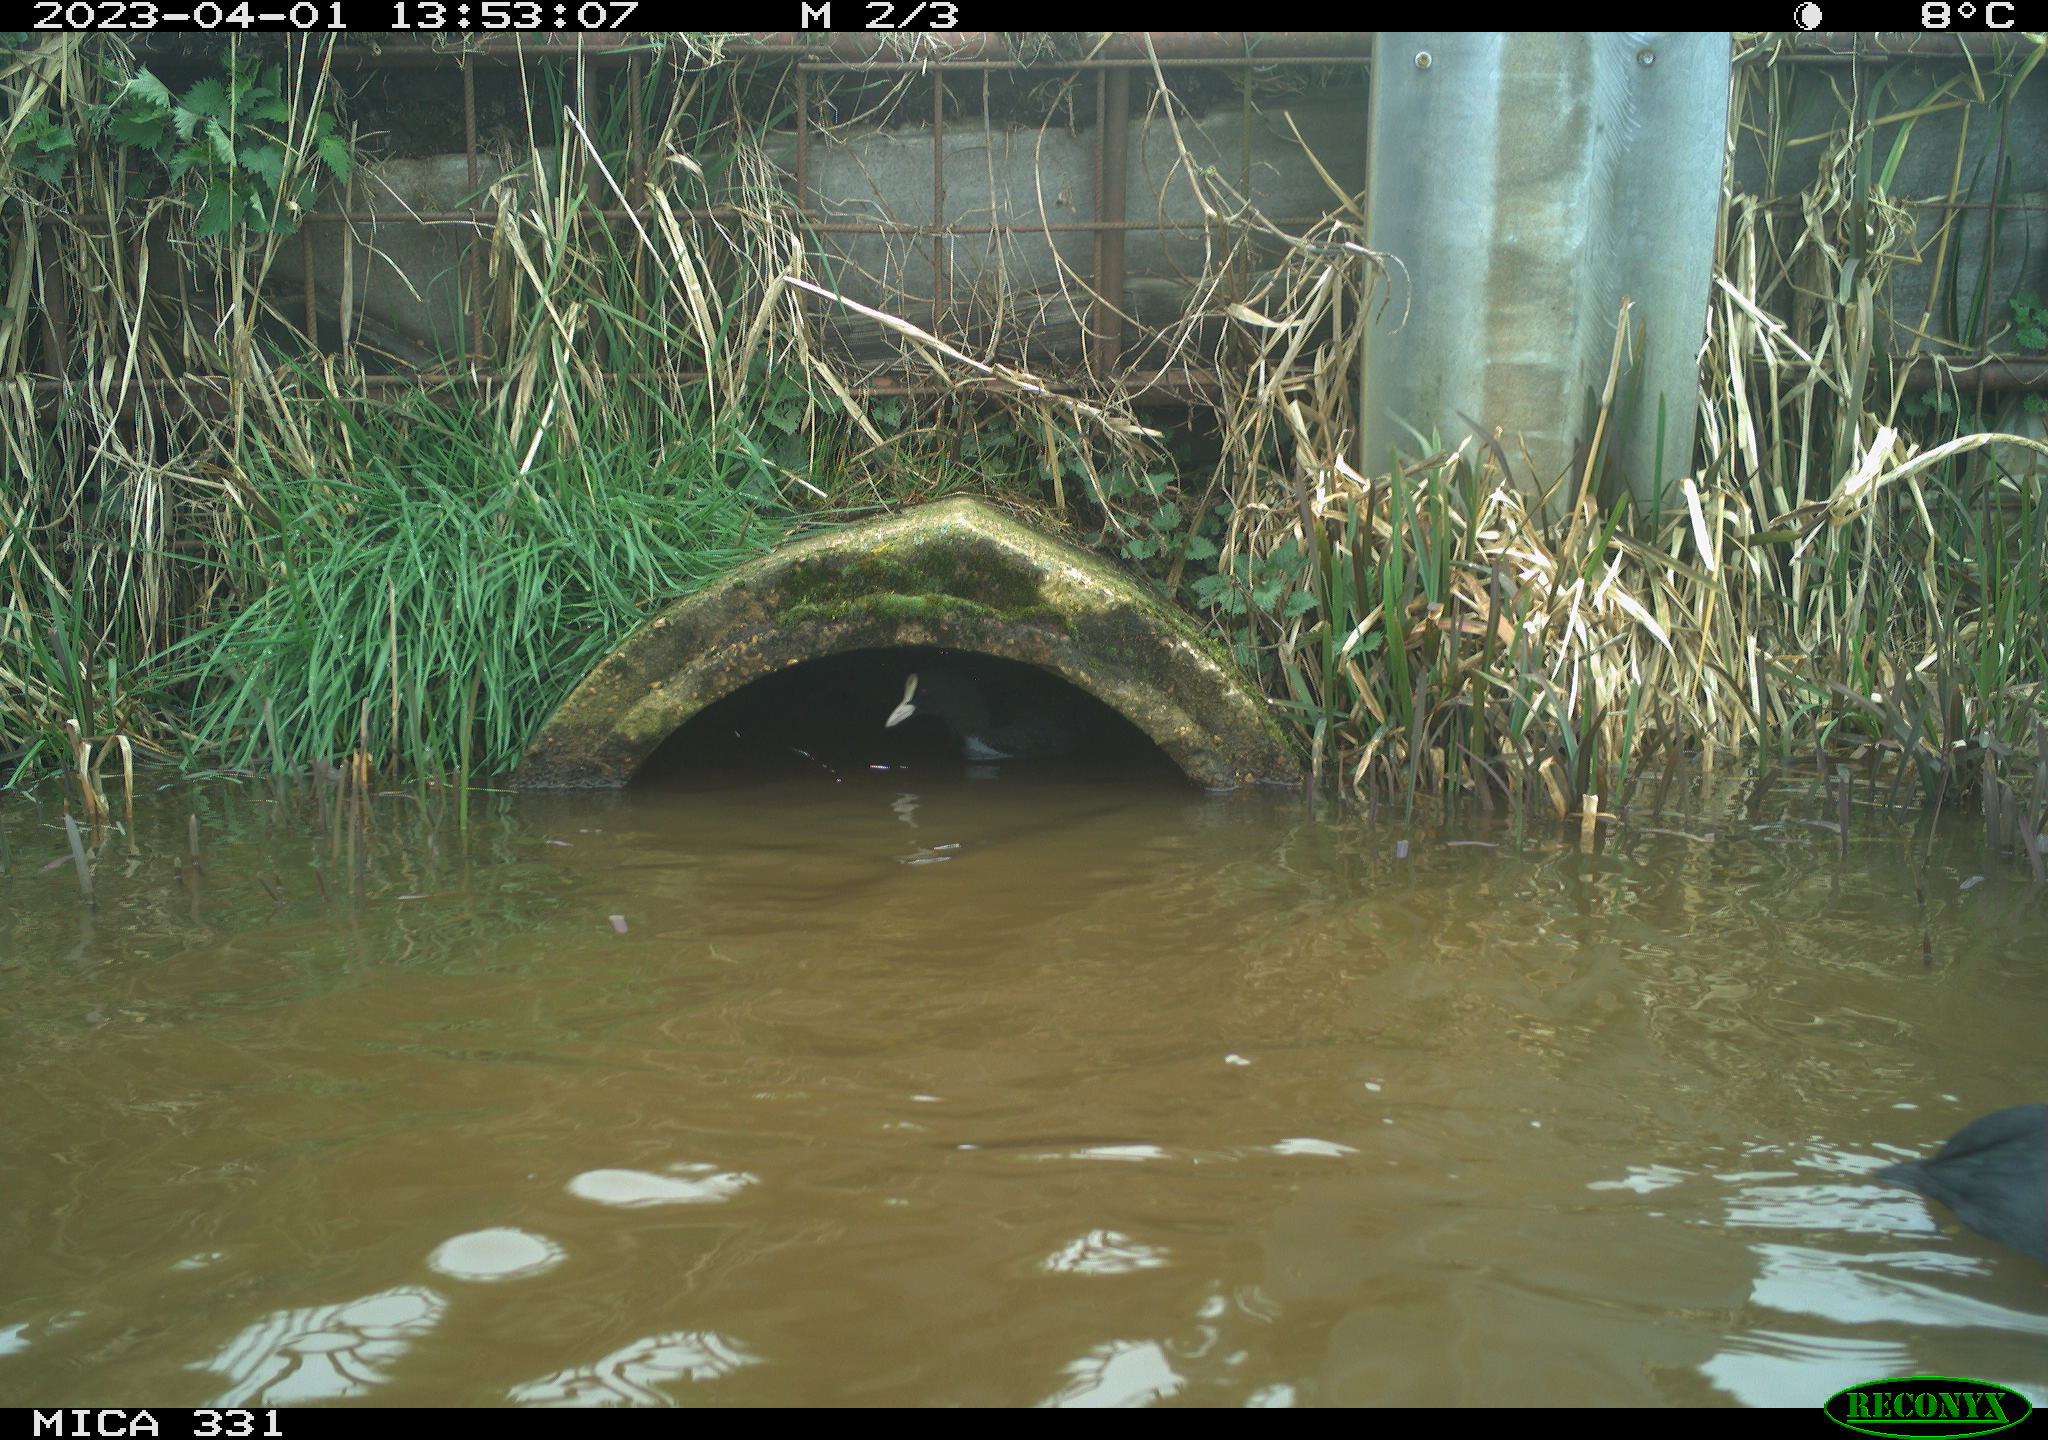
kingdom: Animalia
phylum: Chordata
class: Aves
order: Gruiformes
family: Rallidae
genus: Fulica
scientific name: Fulica atra
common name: Eurasian coot
